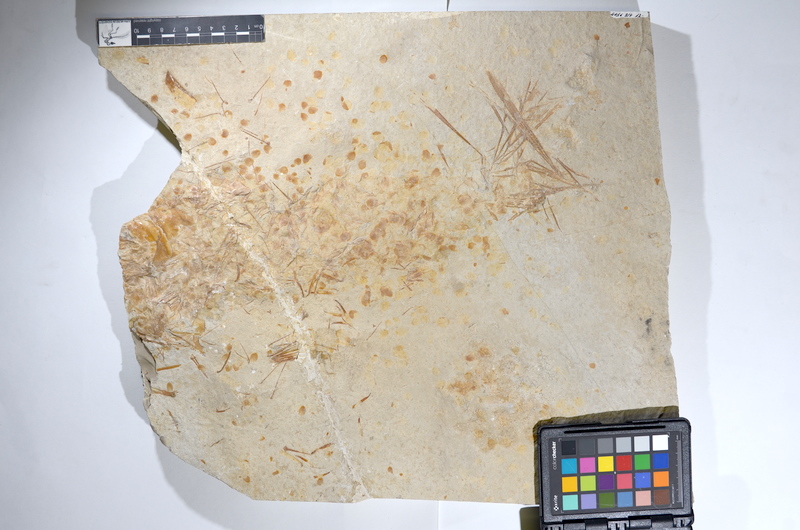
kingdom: Animalia
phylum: Chordata
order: Amiiformes
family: Caturidae
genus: Caturus
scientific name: Caturus
